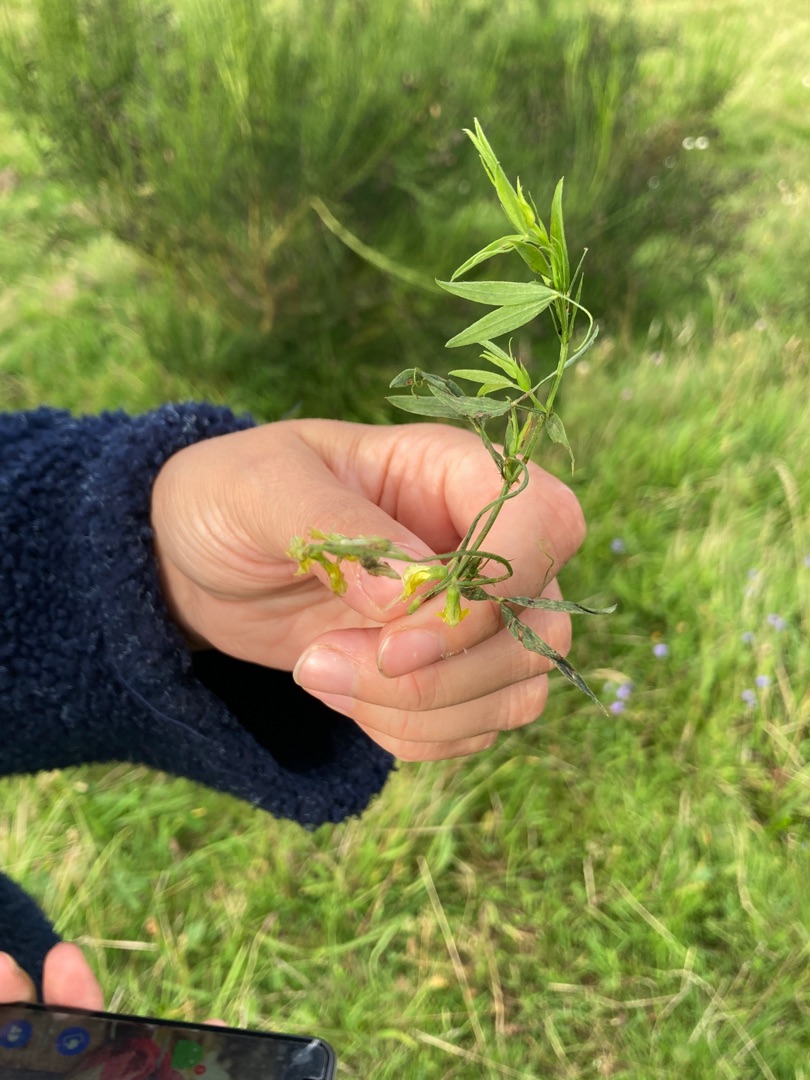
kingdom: Plantae
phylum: Tracheophyta
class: Magnoliopsida
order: Fabales
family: Fabaceae
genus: Lathyrus
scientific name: Lathyrus pratensis
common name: Gul fladbælg
